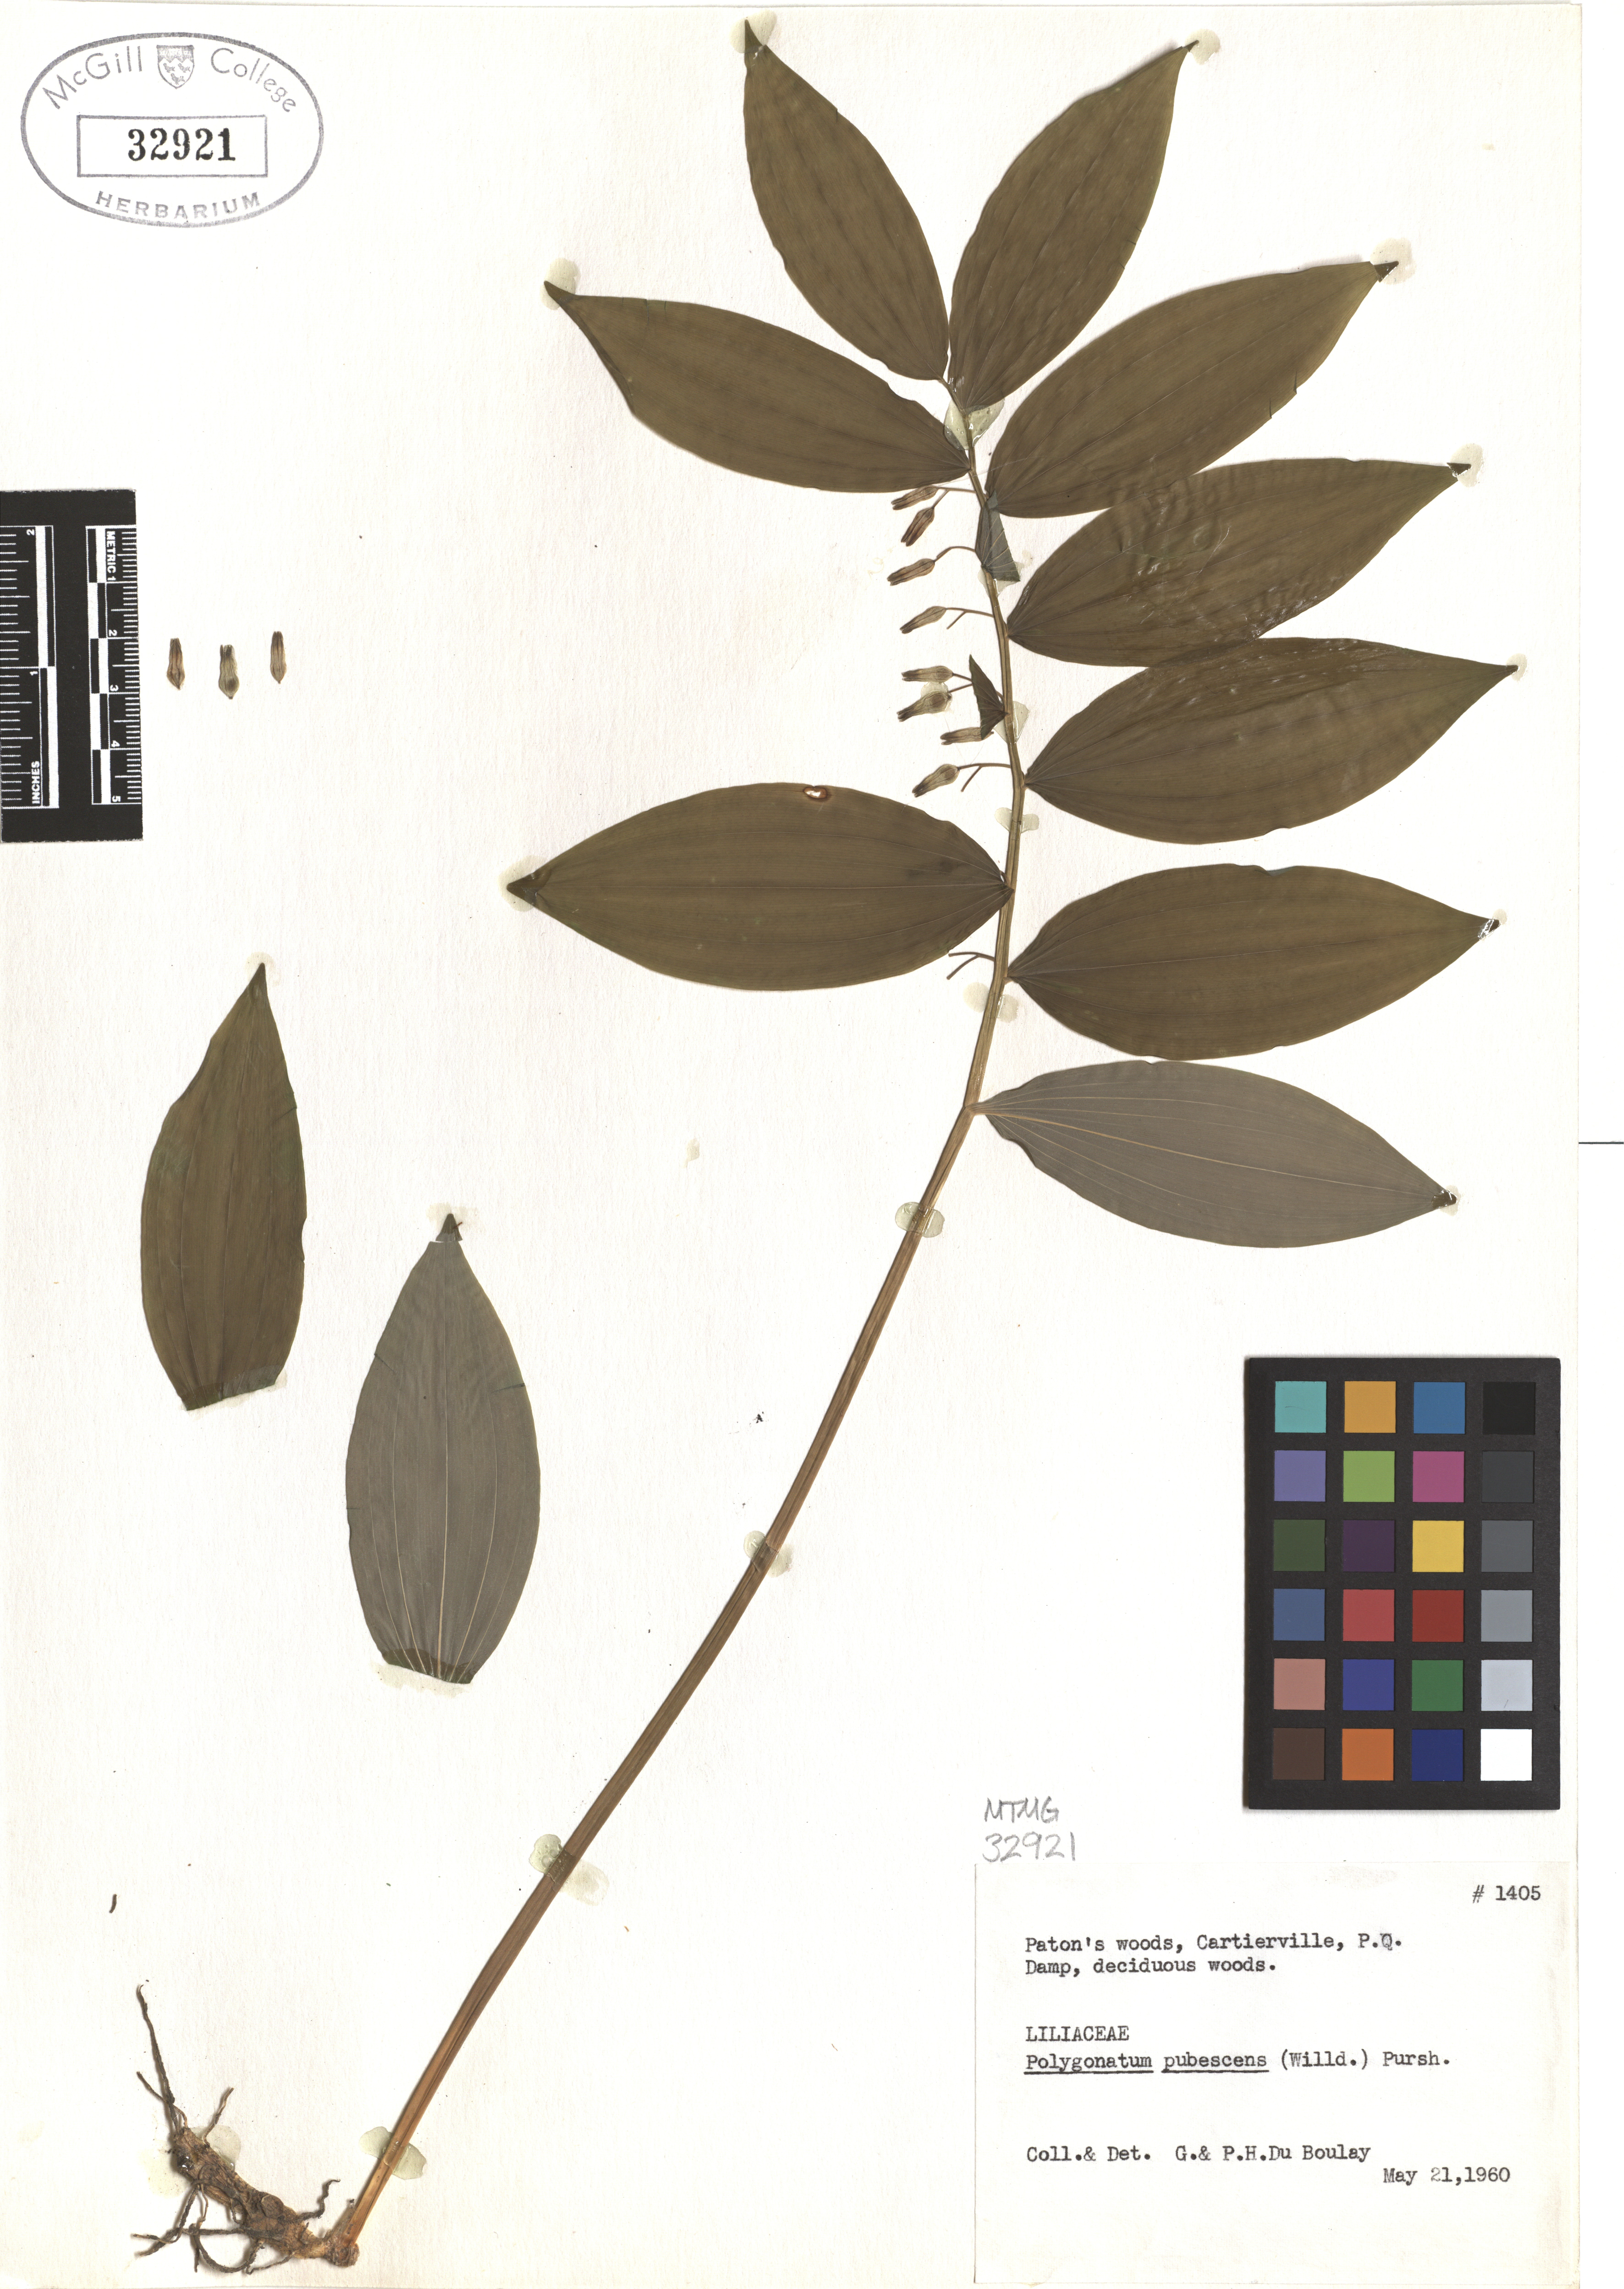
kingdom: Plantae
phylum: Tracheophyta
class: Liliopsida
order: Asparagales
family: Asparagaceae
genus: Polygonatum
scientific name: Polygonatum pubescens
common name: Downy solomon's seal
